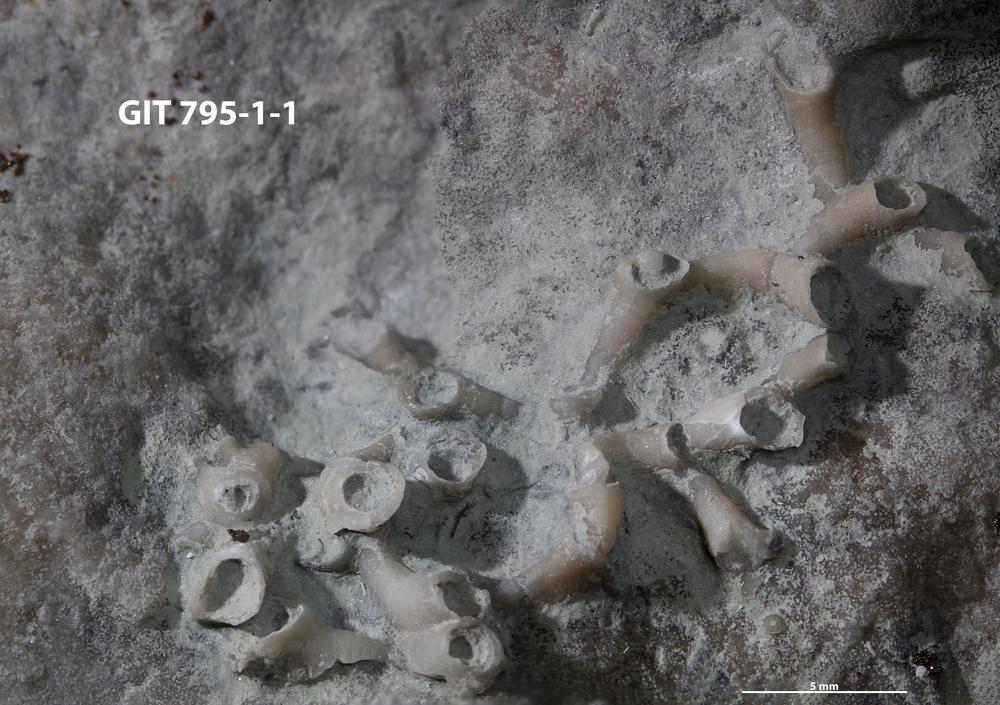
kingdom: Animalia
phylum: Cnidaria
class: Anthozoa
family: Auloporidae
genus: Aulopora
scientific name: Aulopora
